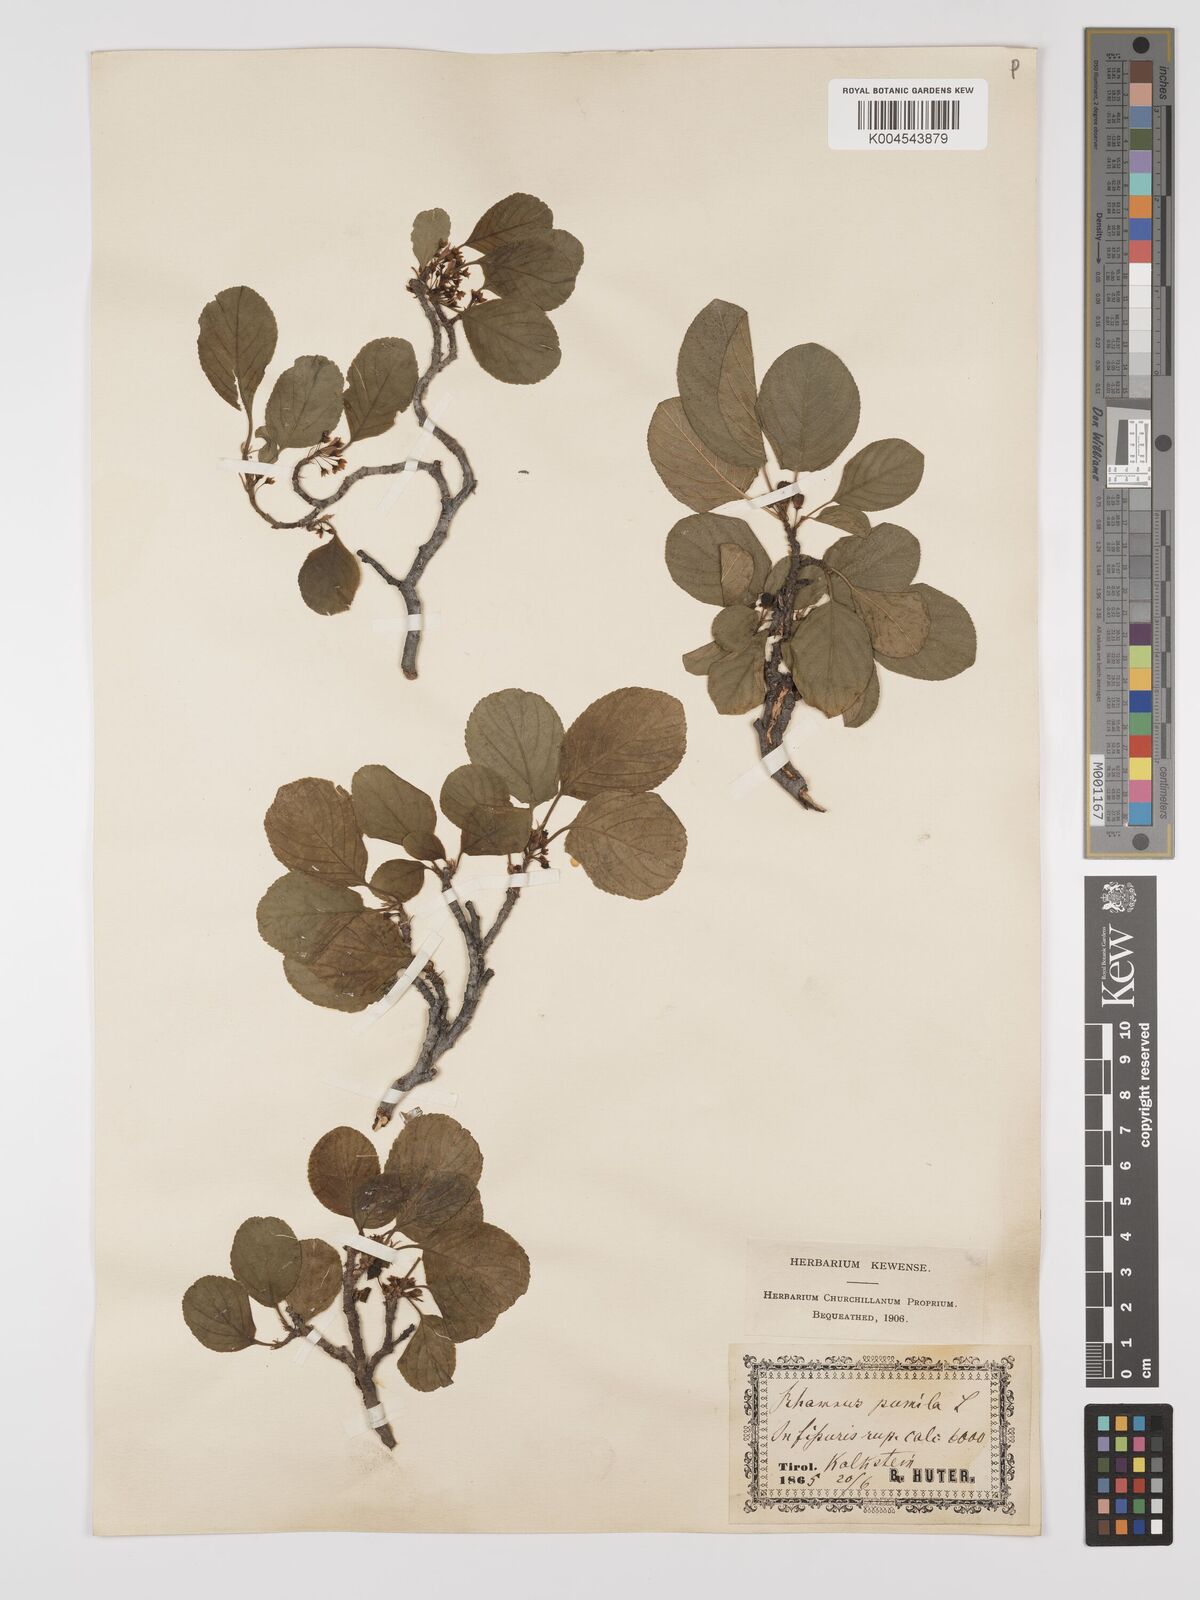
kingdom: Plantae
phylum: Tracheophyta
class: Magnoliopsida
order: Rosales
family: Rhamnaceae
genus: Rhamnus
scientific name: Rhamnus
